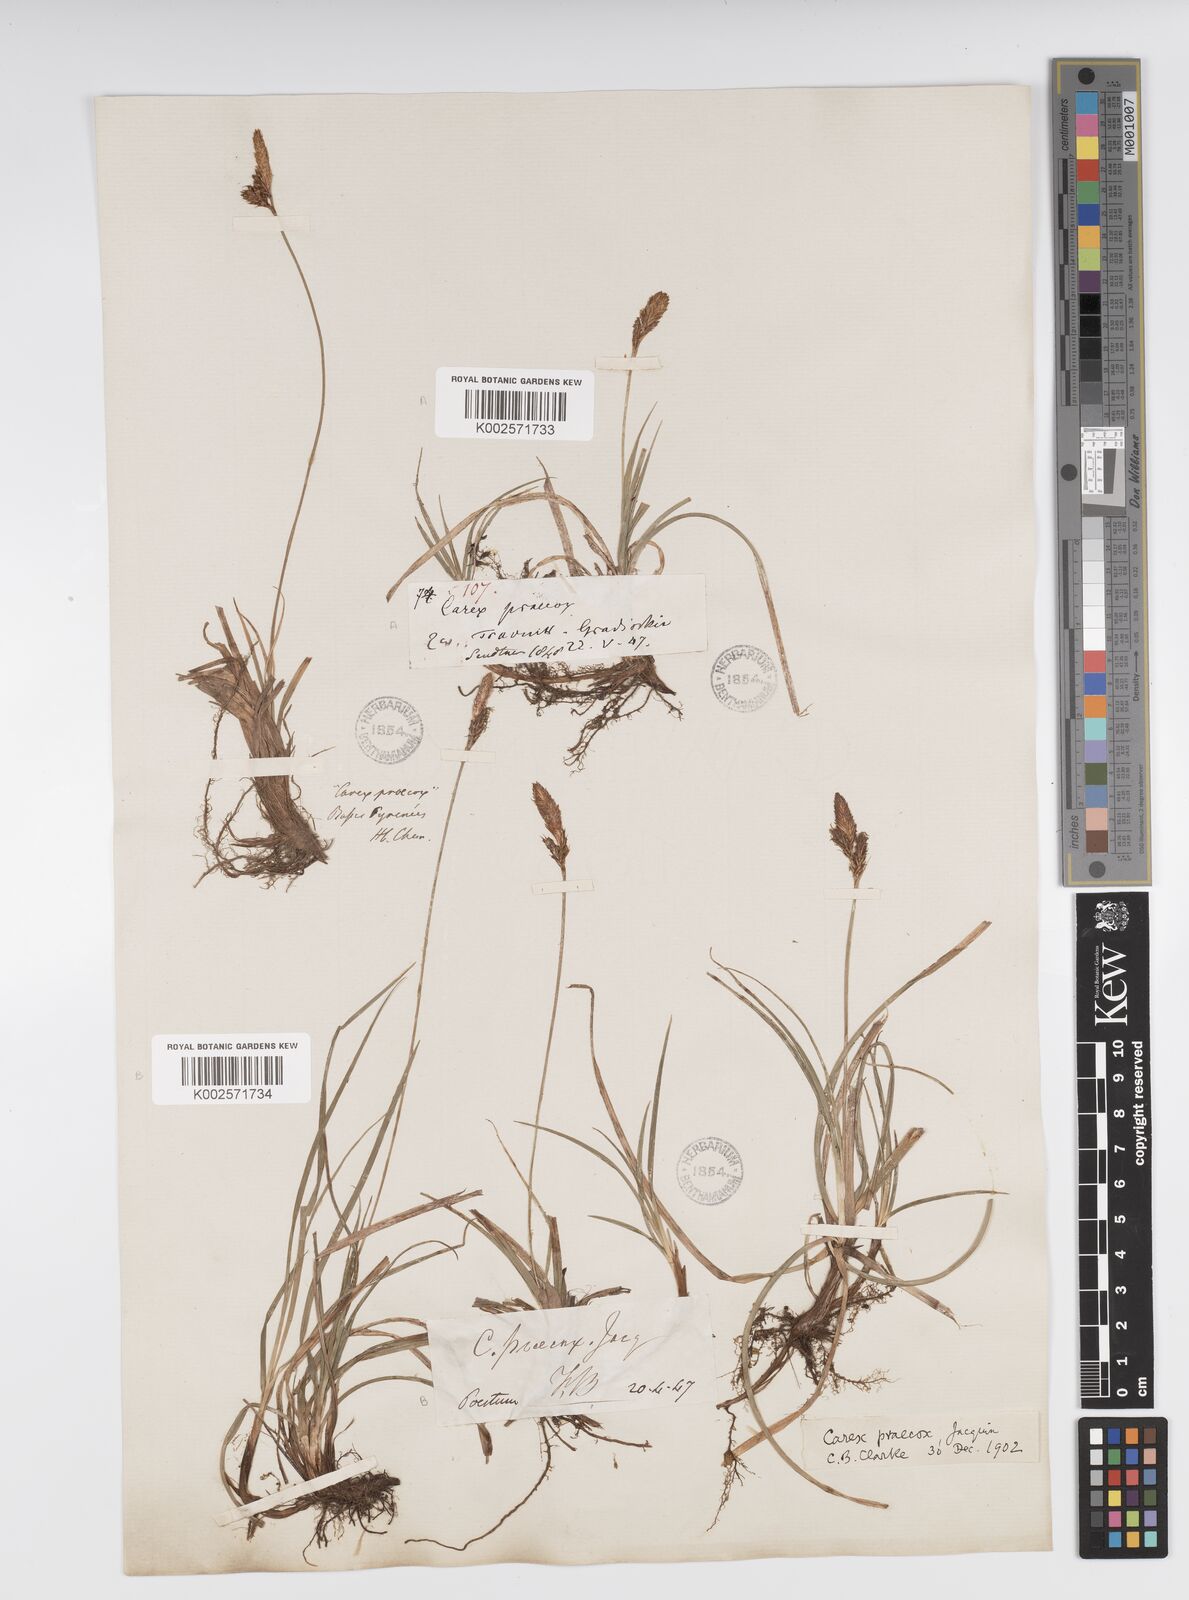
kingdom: Plantae
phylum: Tracheophyta
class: Liliopsida
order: Poales
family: Cyperaceae
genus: Carex
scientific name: Carex caryophyllea
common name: Spring sedge
